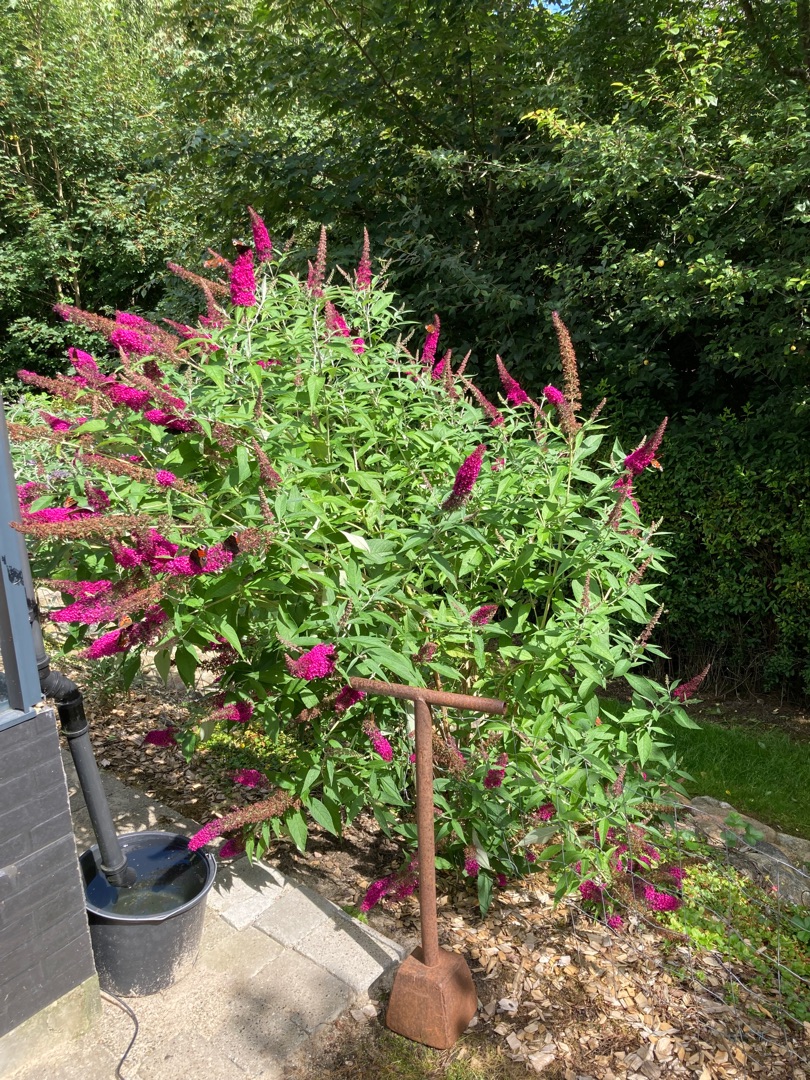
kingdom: Animalia
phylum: Arthropoda
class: Insecta
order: Lepidoptera
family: Nymphalidae
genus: Vanessa
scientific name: Vanessa atalanta
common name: Admiral
